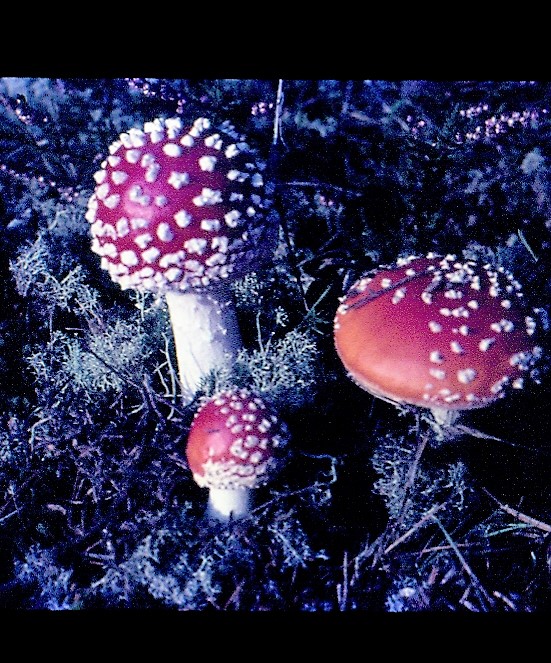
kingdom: Fungi
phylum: Basidiomycota
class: Agaricomycetes
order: Agaricales
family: Amanitaceae
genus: Amanita
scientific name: Amanita muscaria
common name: rød fluesvamp
